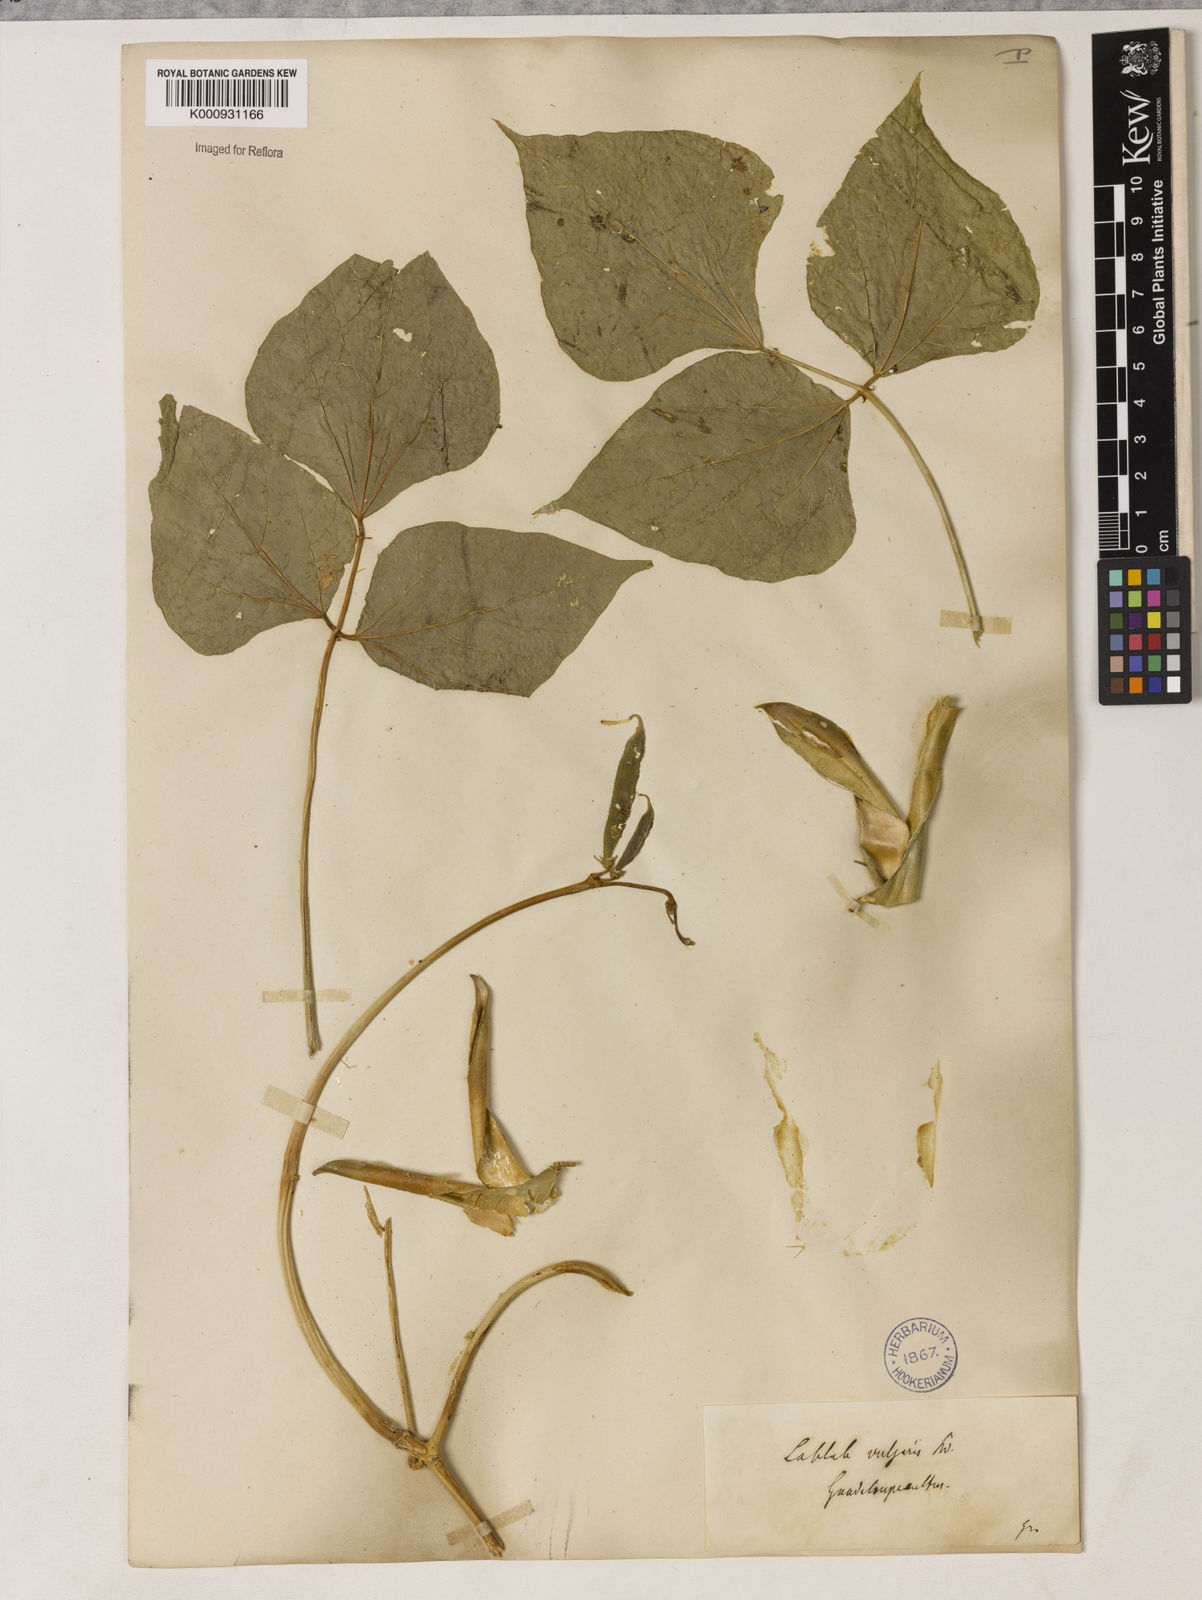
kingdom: Plantae
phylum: Tracheophyta
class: Magnoliopsida
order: Fabales
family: Fabaceae
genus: Lablab
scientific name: Lablab purpureus
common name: Lablab-bean
